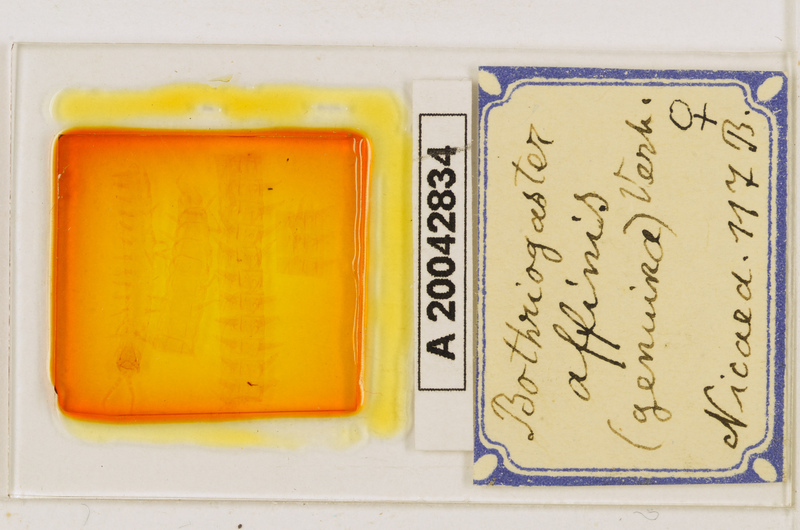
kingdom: Animalia
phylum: Arthropoda
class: Chilopoda
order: Geophilomorpha
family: Himantariidae
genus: Bothriogaster
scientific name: Bothriogaster signata
